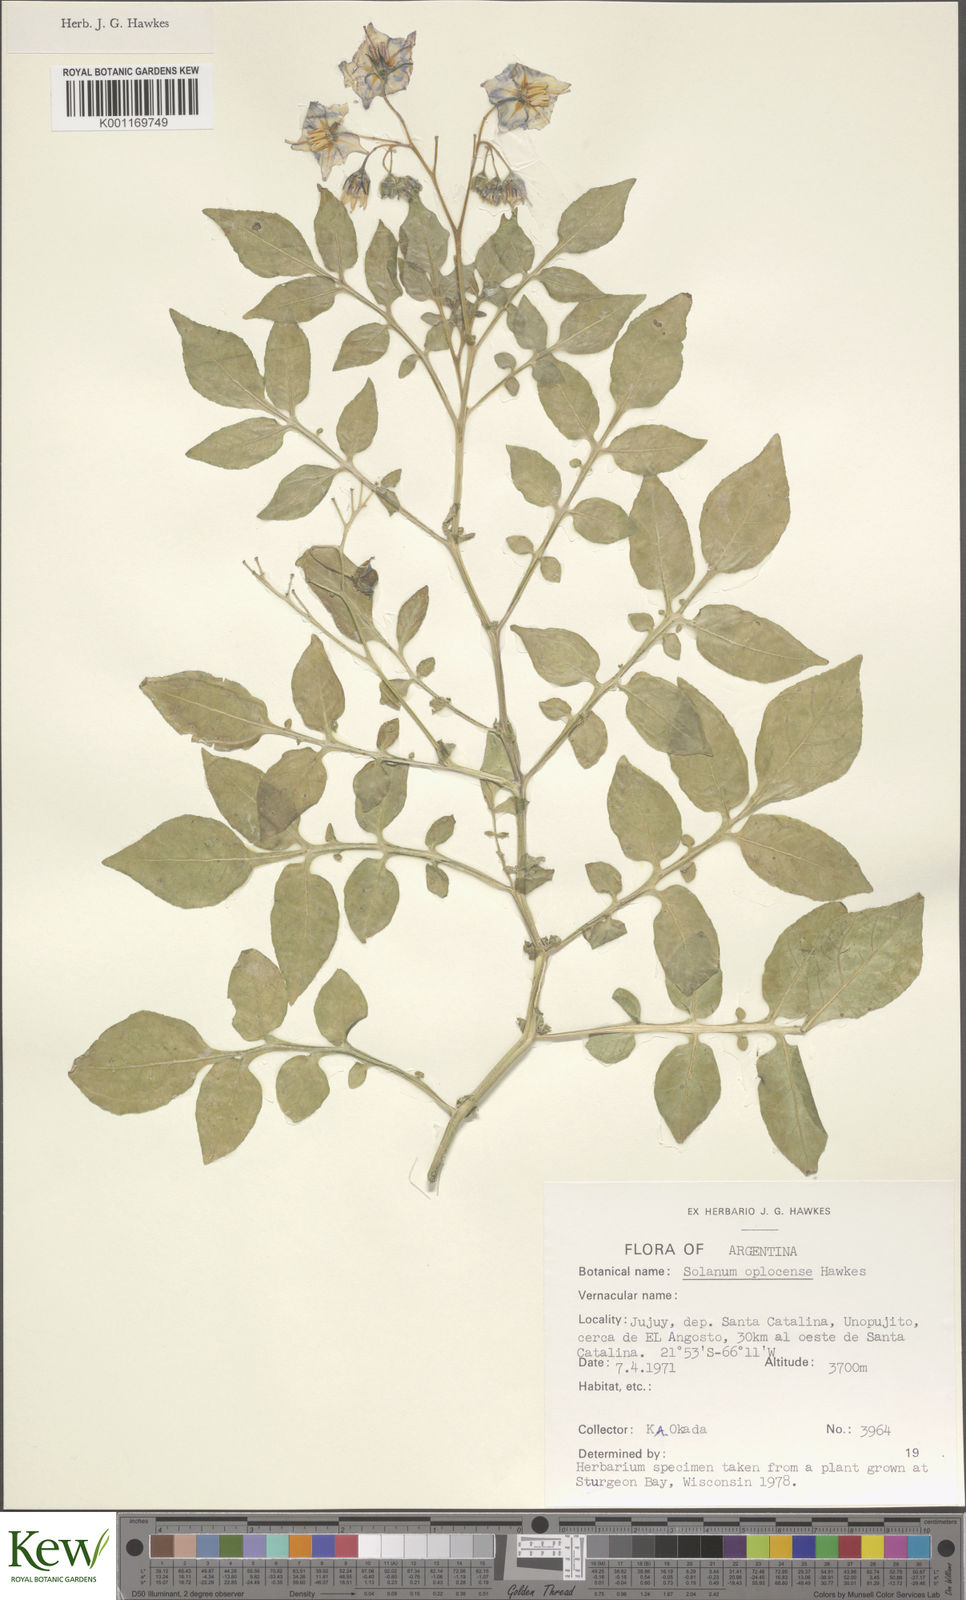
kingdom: Plantae
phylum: Tracheophyta
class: Magnoliopsida
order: Solanales
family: Solanaceae
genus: Solanum
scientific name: Solanum brevicaule
